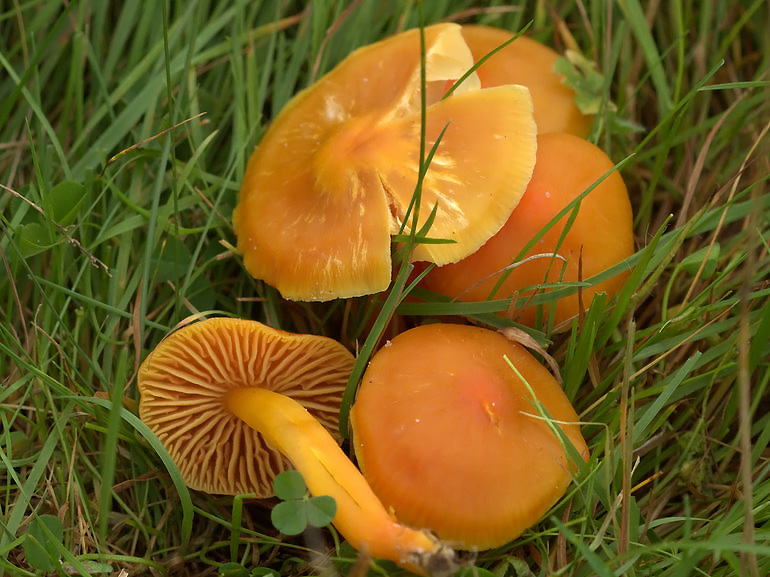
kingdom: Fungi
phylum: Basidiomycota
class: Agaricomycetes
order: Agaricales
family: Hygrophoraceae
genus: Hygrocybe
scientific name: Hygrocybe quieta
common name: tæge-vokshat
